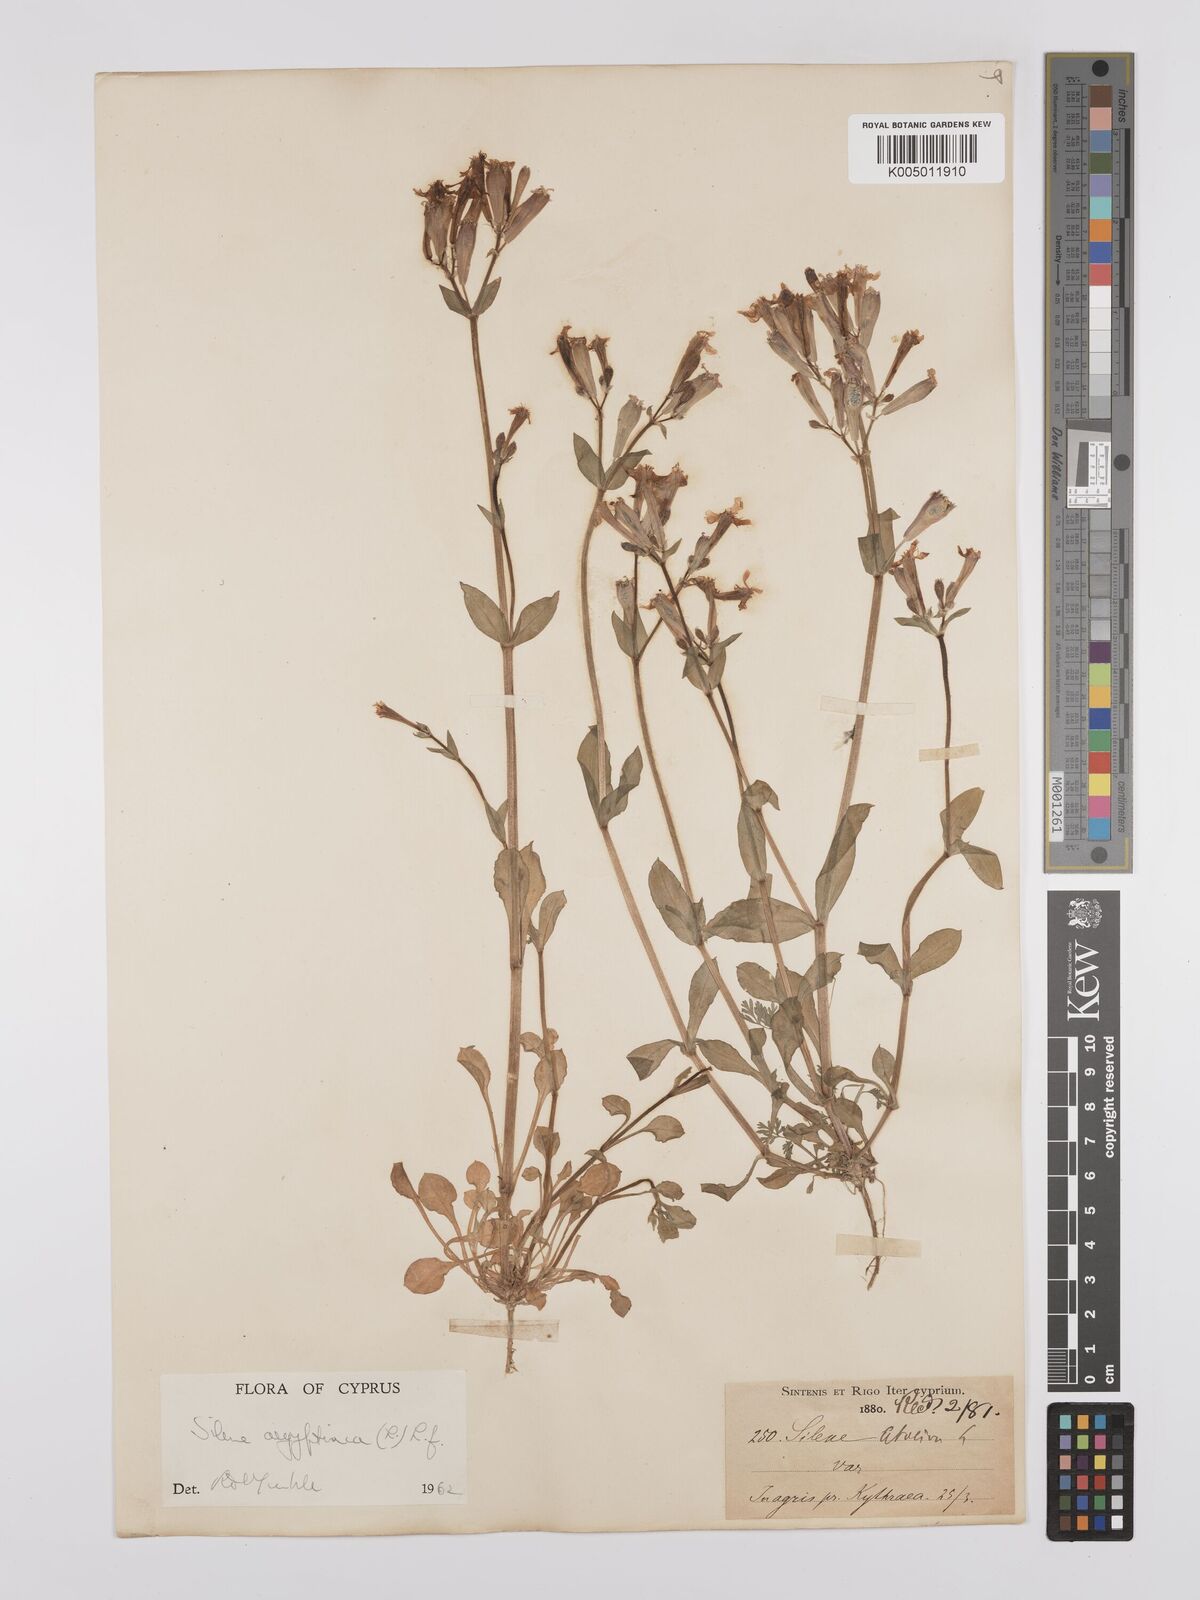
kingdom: Plantae
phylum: Tracheophyta
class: Magnoliopsida
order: Caryophyllales
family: Caryophyllaceae
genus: Silene
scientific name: Silene aegyptiaca
